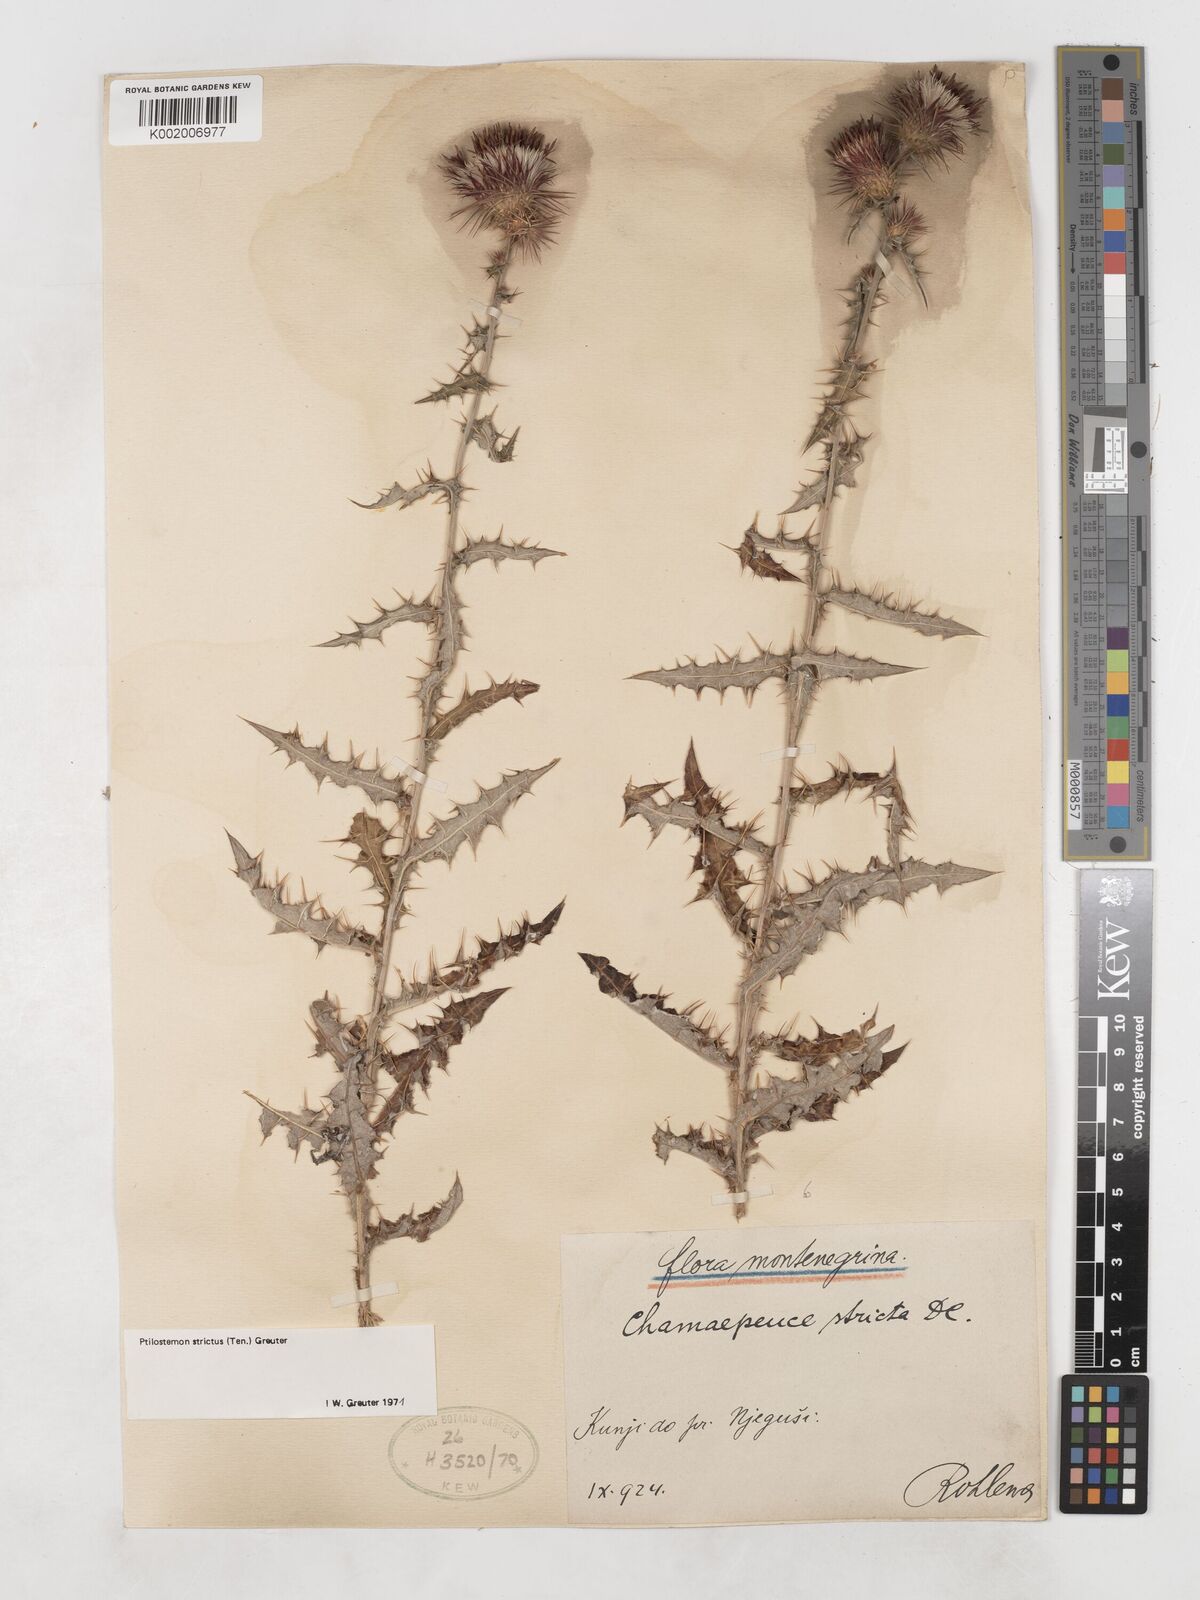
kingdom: Plantae
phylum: Tracheophyta
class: Magnoliopsida
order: Asterales
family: Asteraceae
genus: Ptilostemon
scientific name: Ptilostemon strictus
